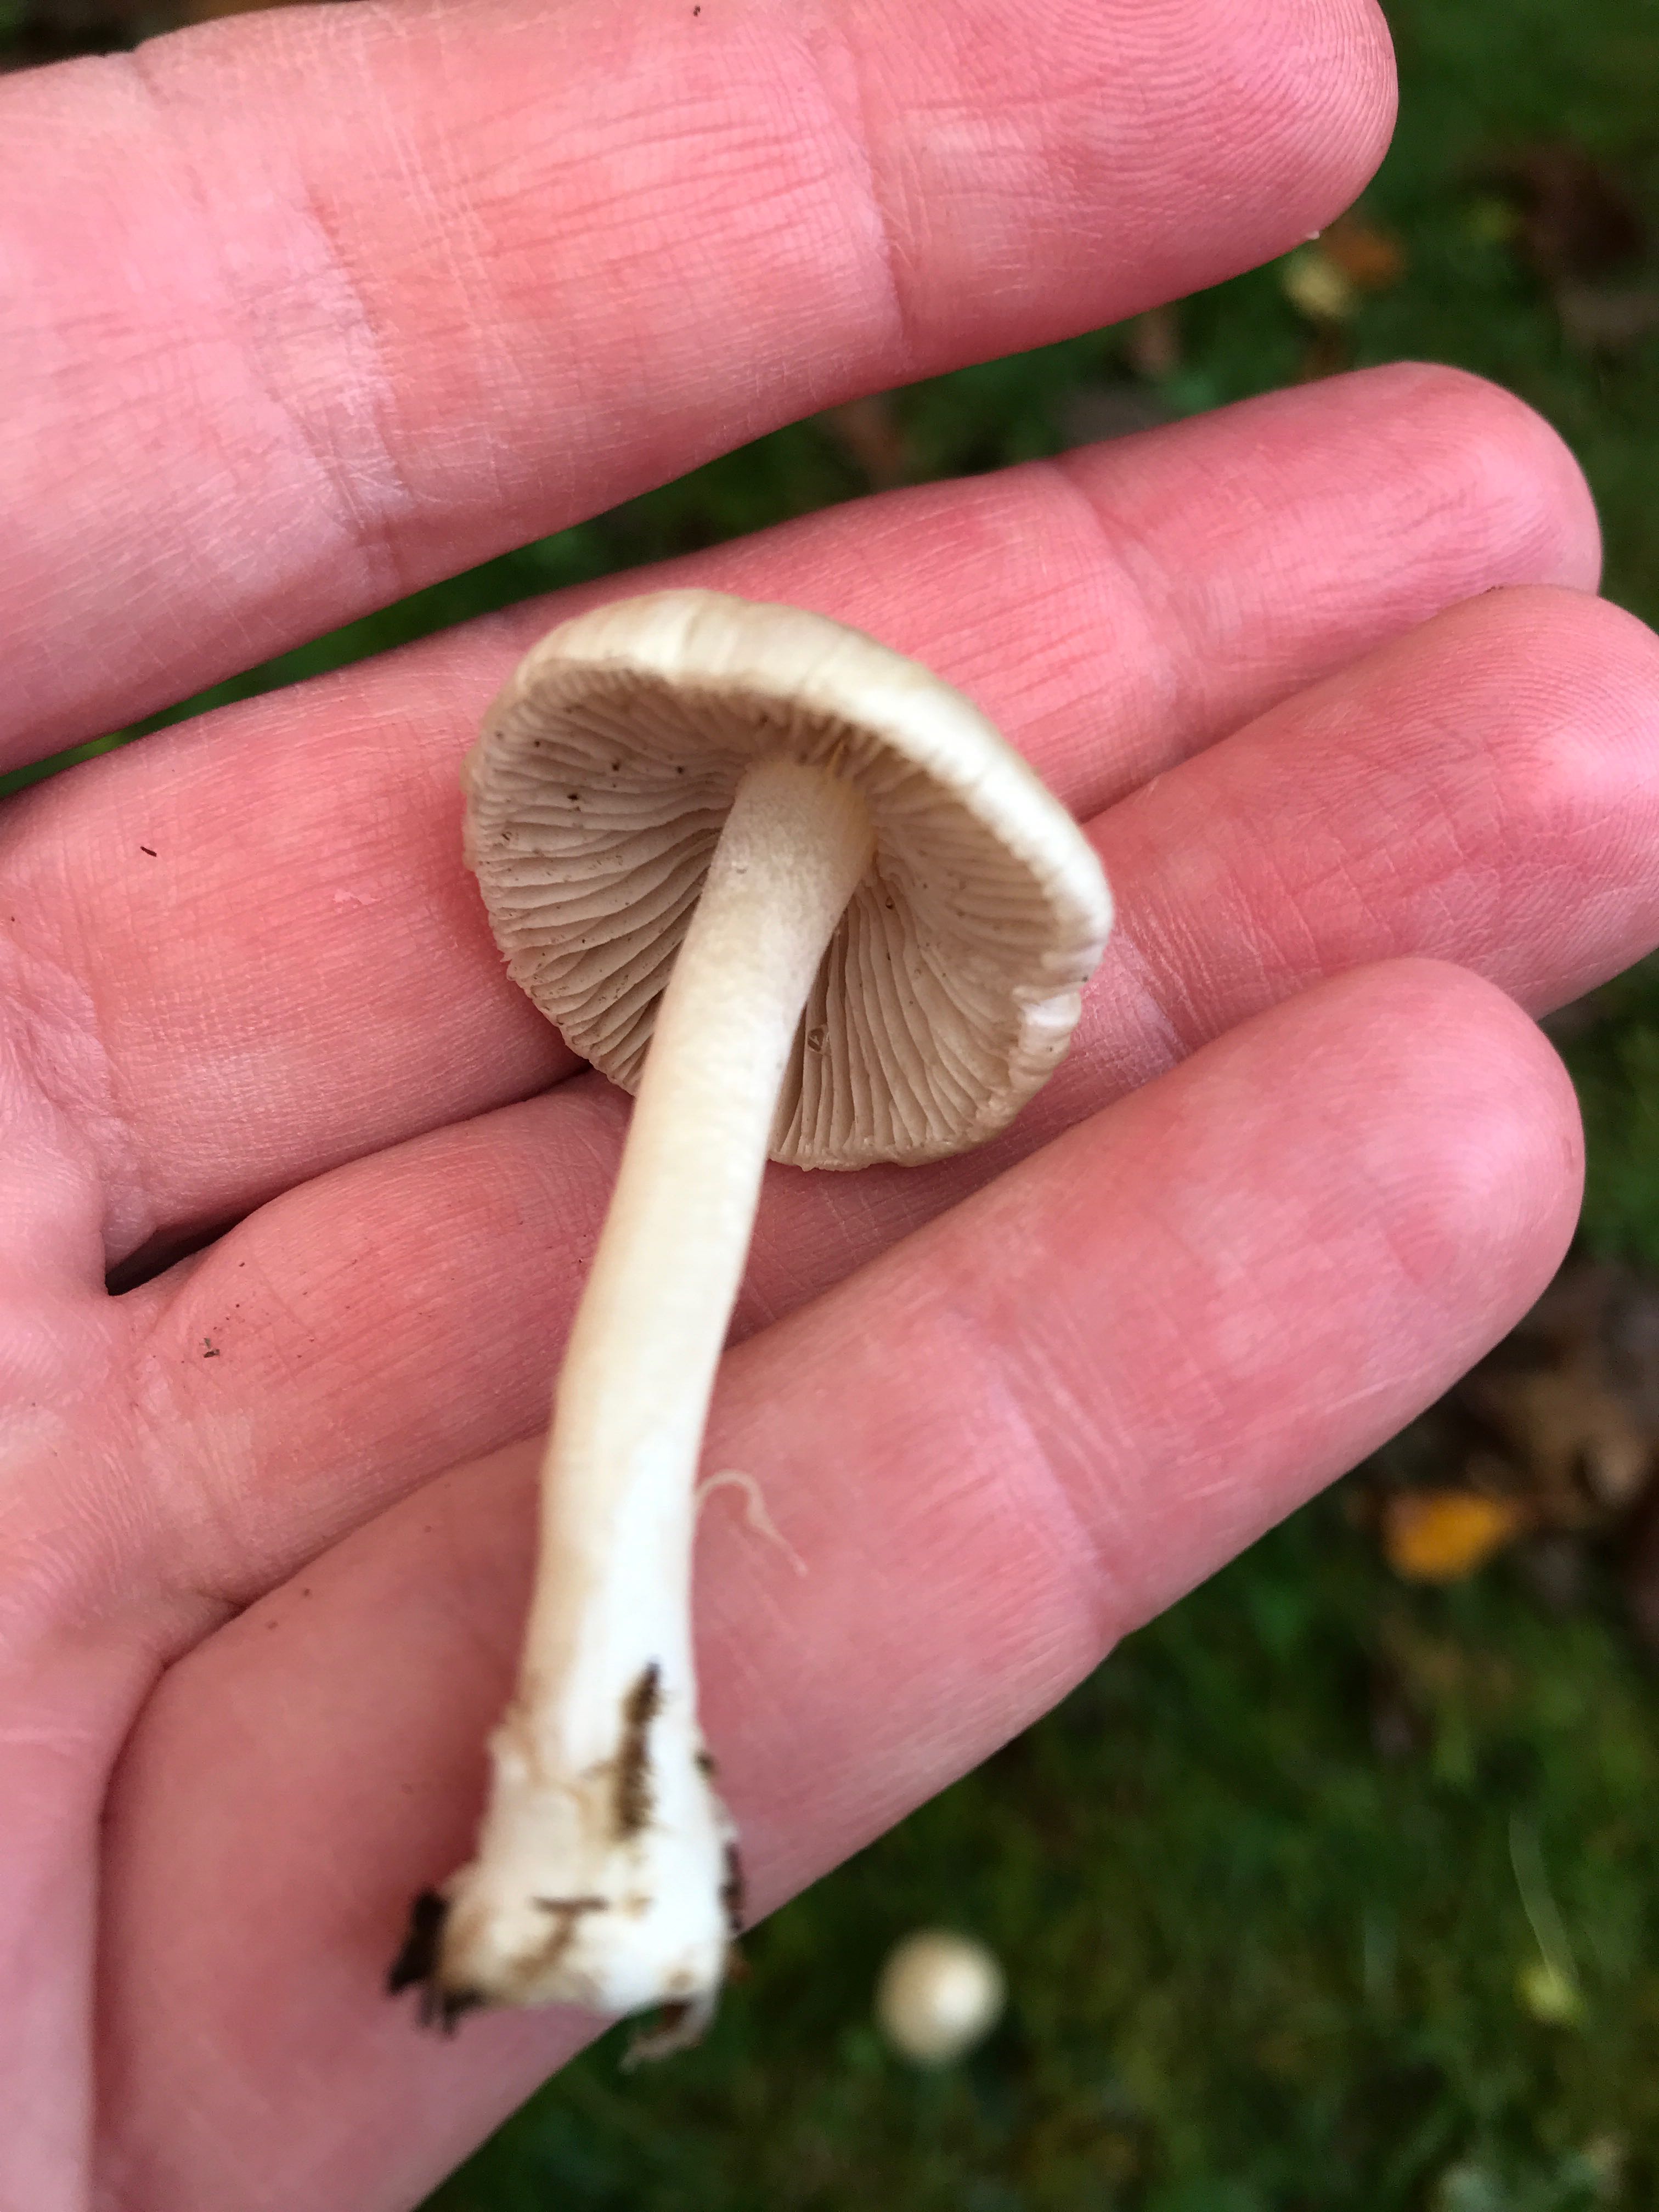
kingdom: Fungi
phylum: Basidiomycota
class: Agaricomycetes
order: Agaricales
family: Inocybaceae
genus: Inocybe
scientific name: Inocybe
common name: trævlhat
